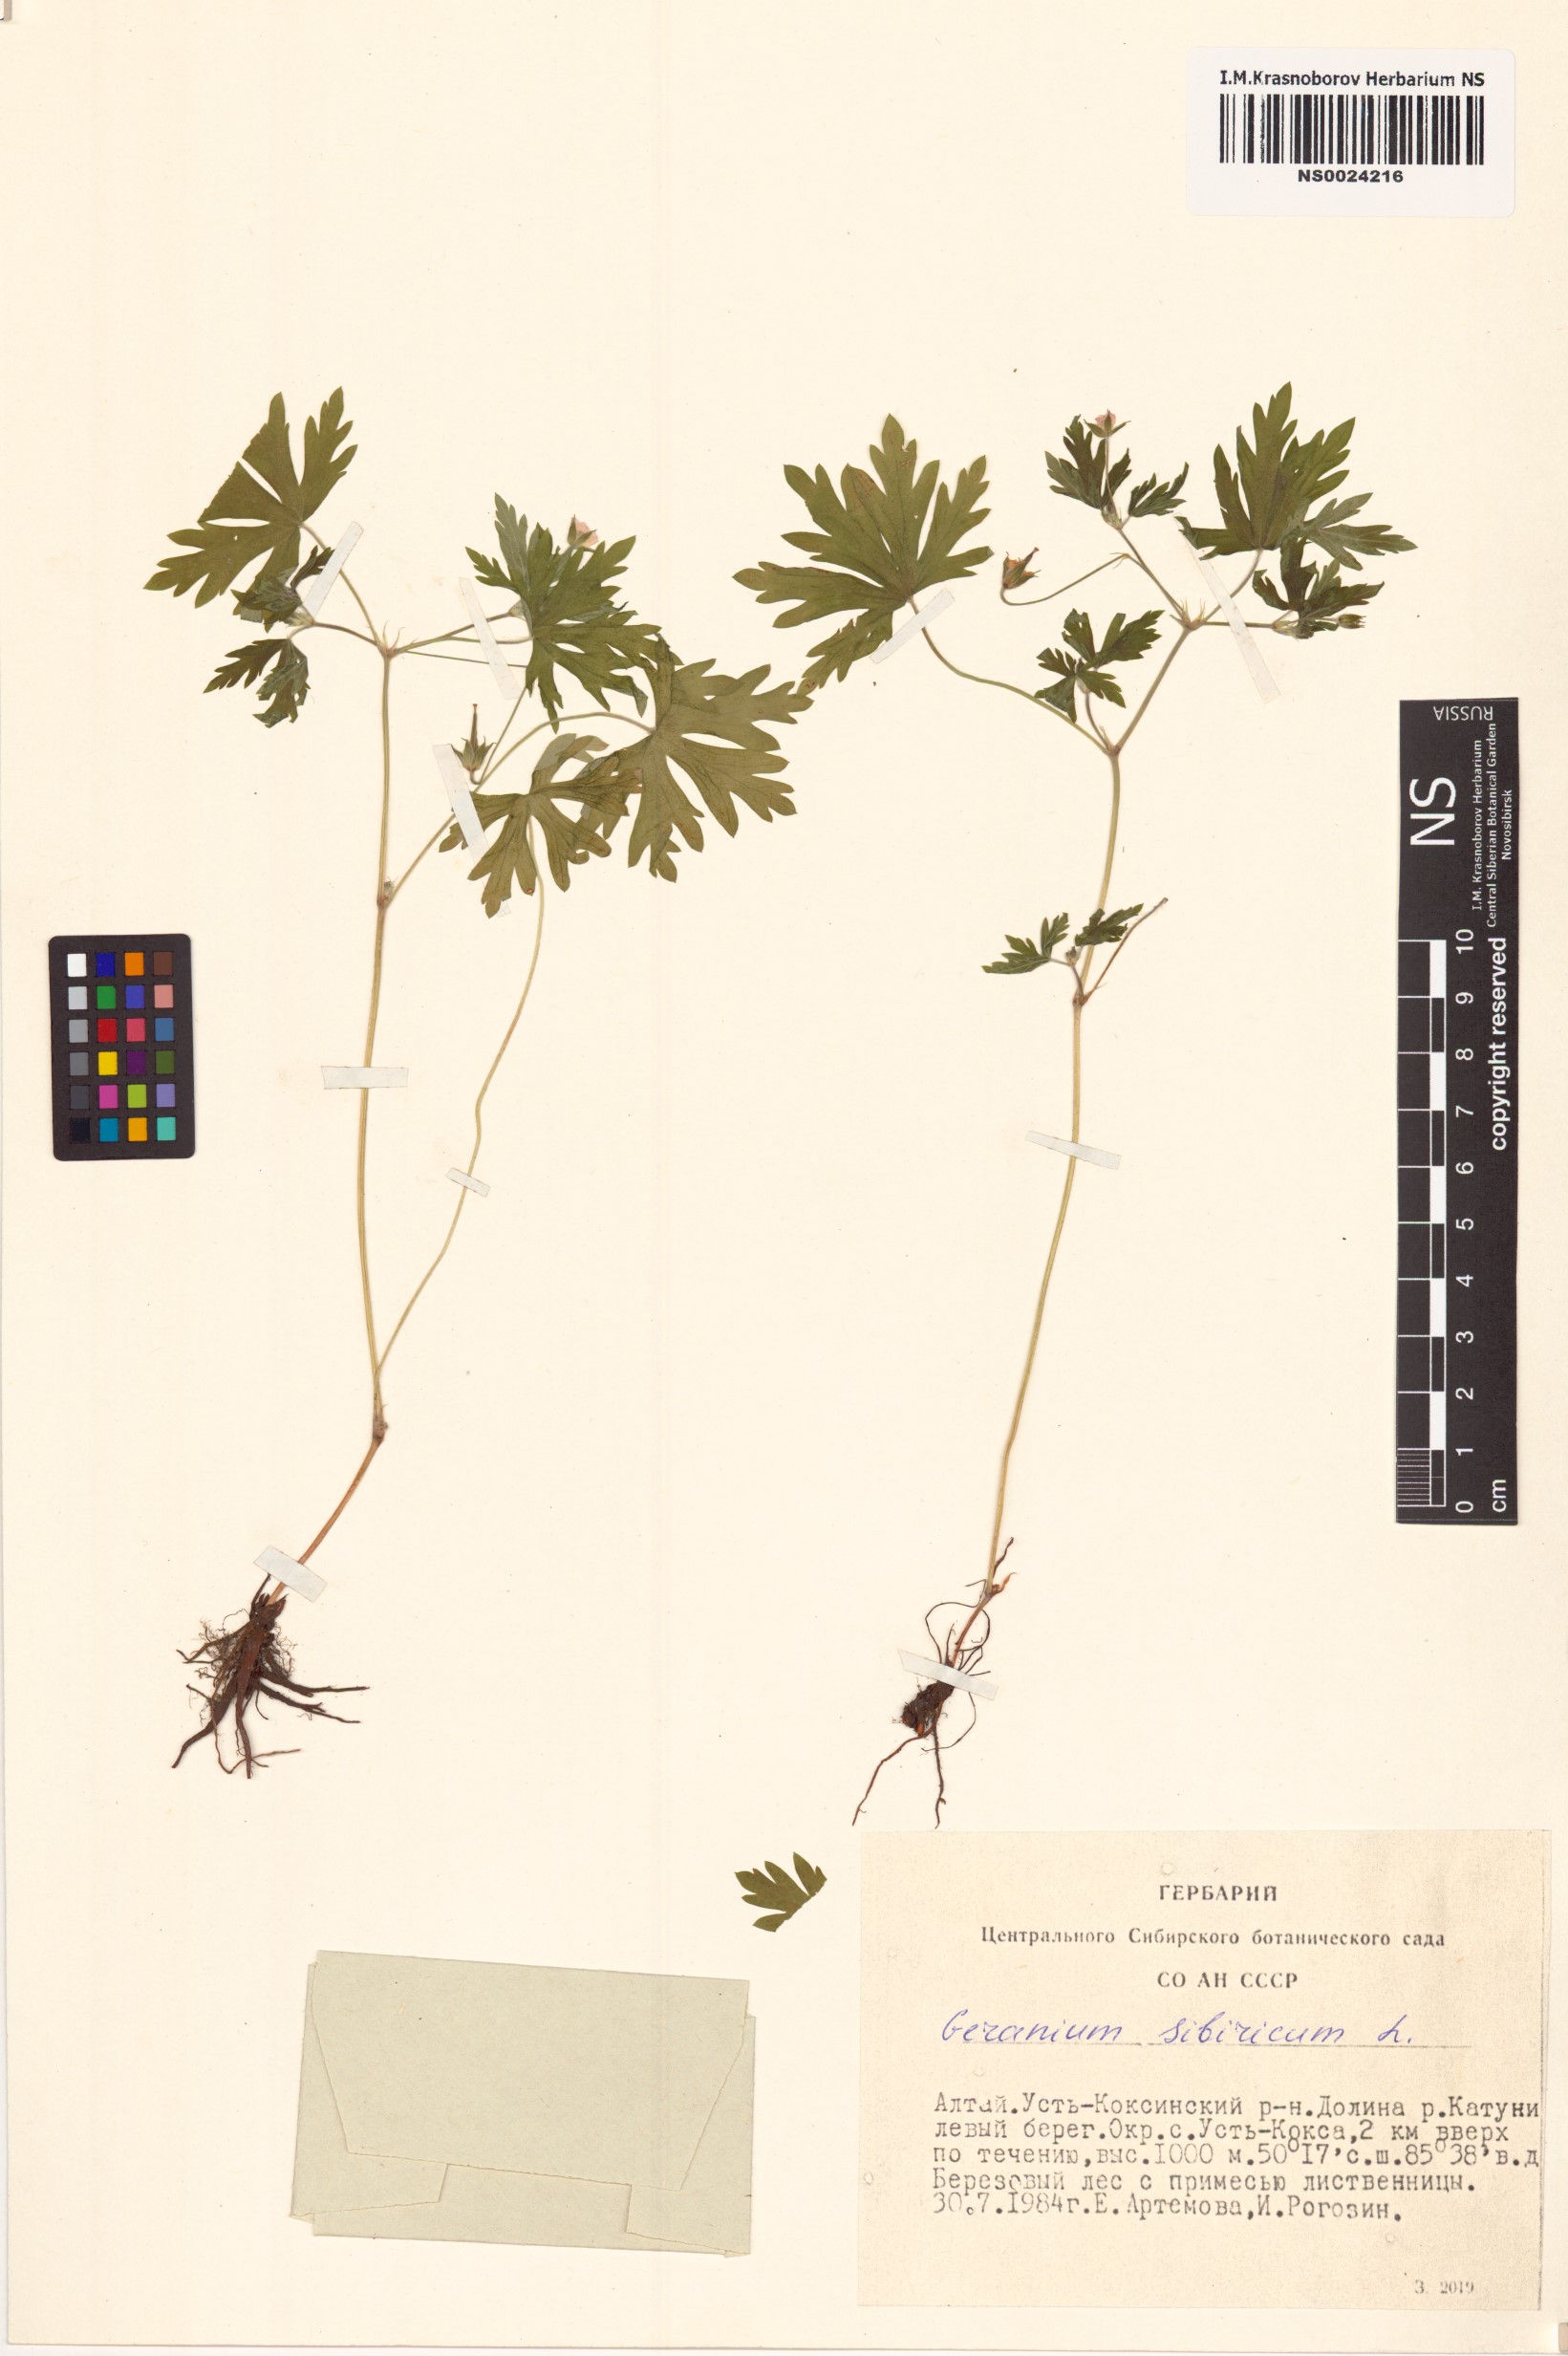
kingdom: Plantae
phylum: Tracheophyta
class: Magnoliopsida
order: Geraniales
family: Geraniaceae
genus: Geranium
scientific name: Geranium sibiricum
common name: Siberian crane's-bill
